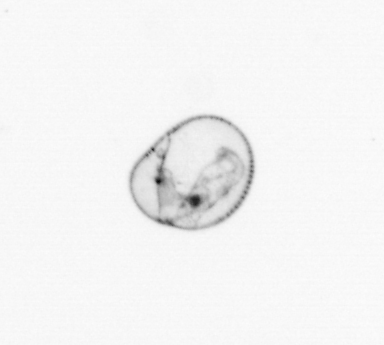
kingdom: Chromista
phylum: Myzozoa
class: Dinophyceae
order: Noctilucales
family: Noctilucaceae
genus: Noctiluca
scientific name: Noctiluca scintillans
